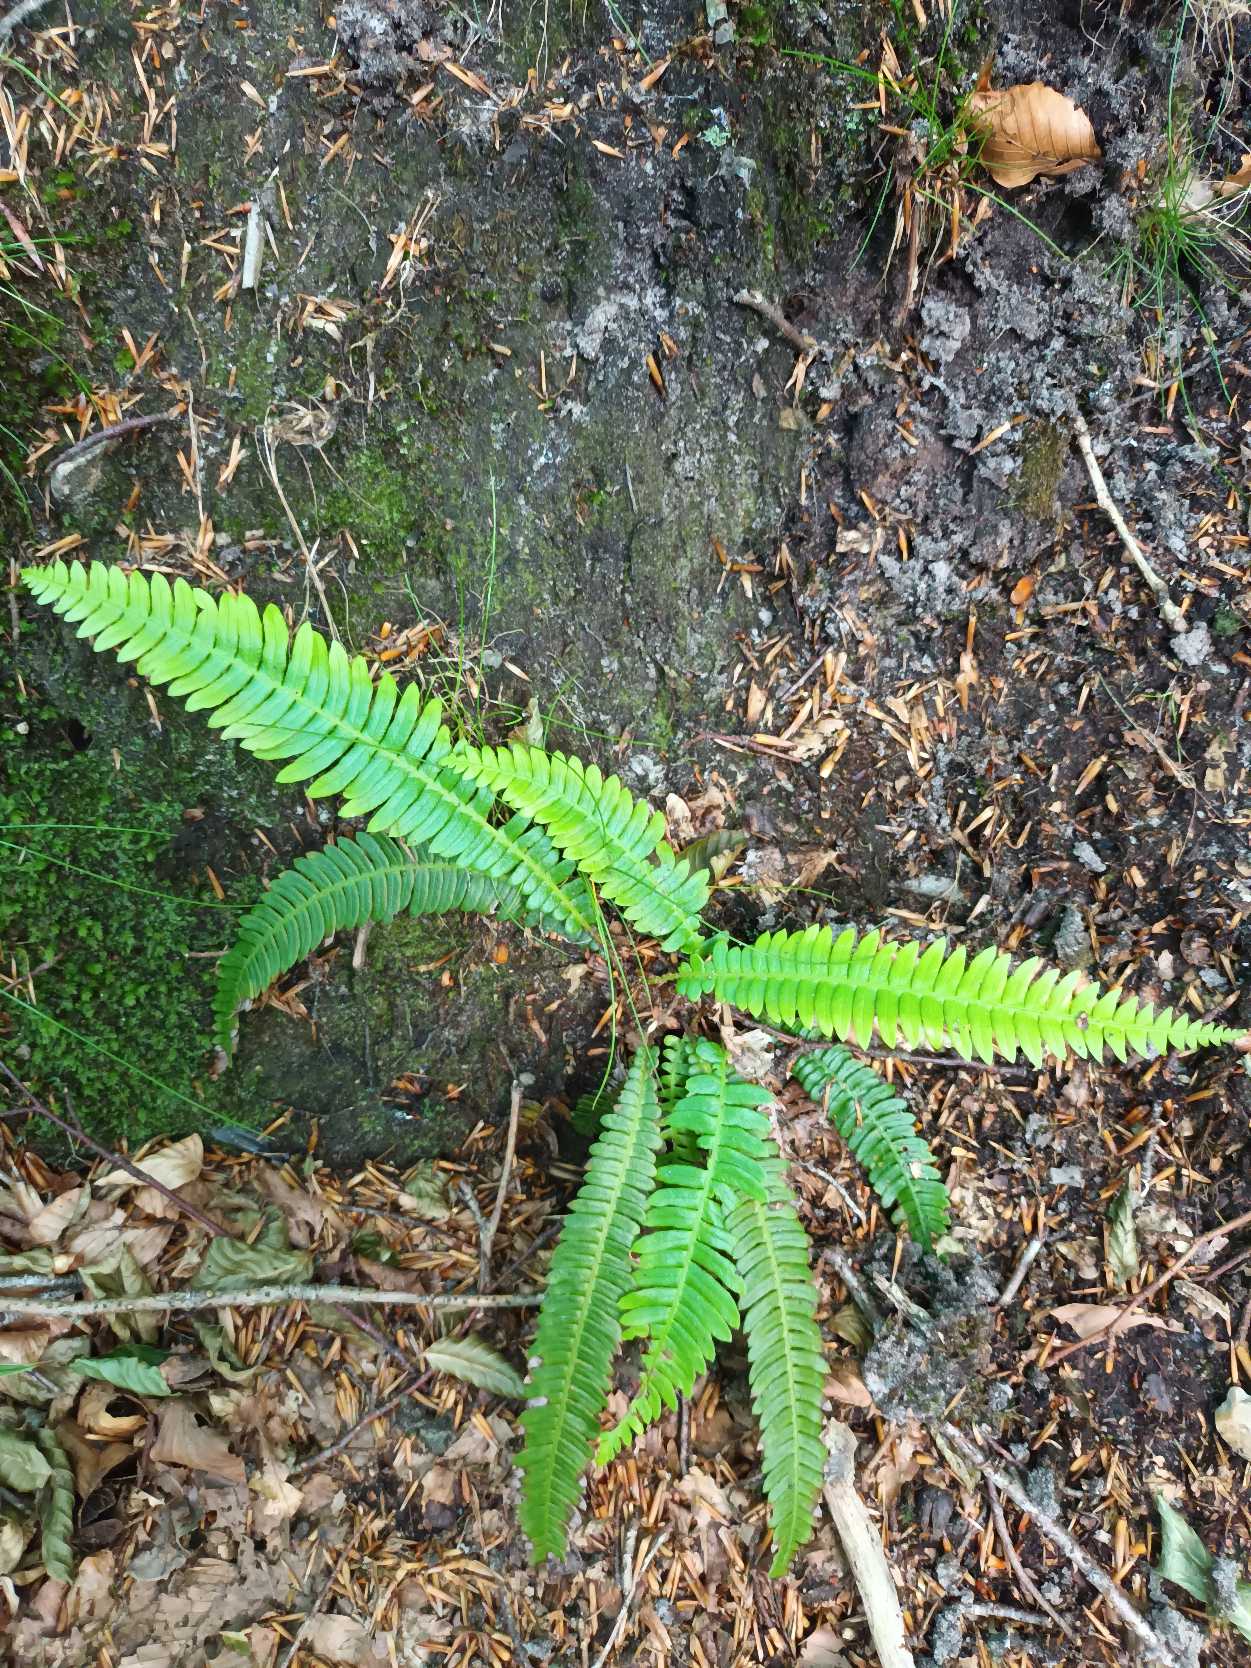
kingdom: Plantae
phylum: Tracheophyta
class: Polypodiopsida
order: Polypodiales
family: Blechnaceae
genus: Struthiopteris
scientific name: Struthiopteris spicant
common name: Kambregne
